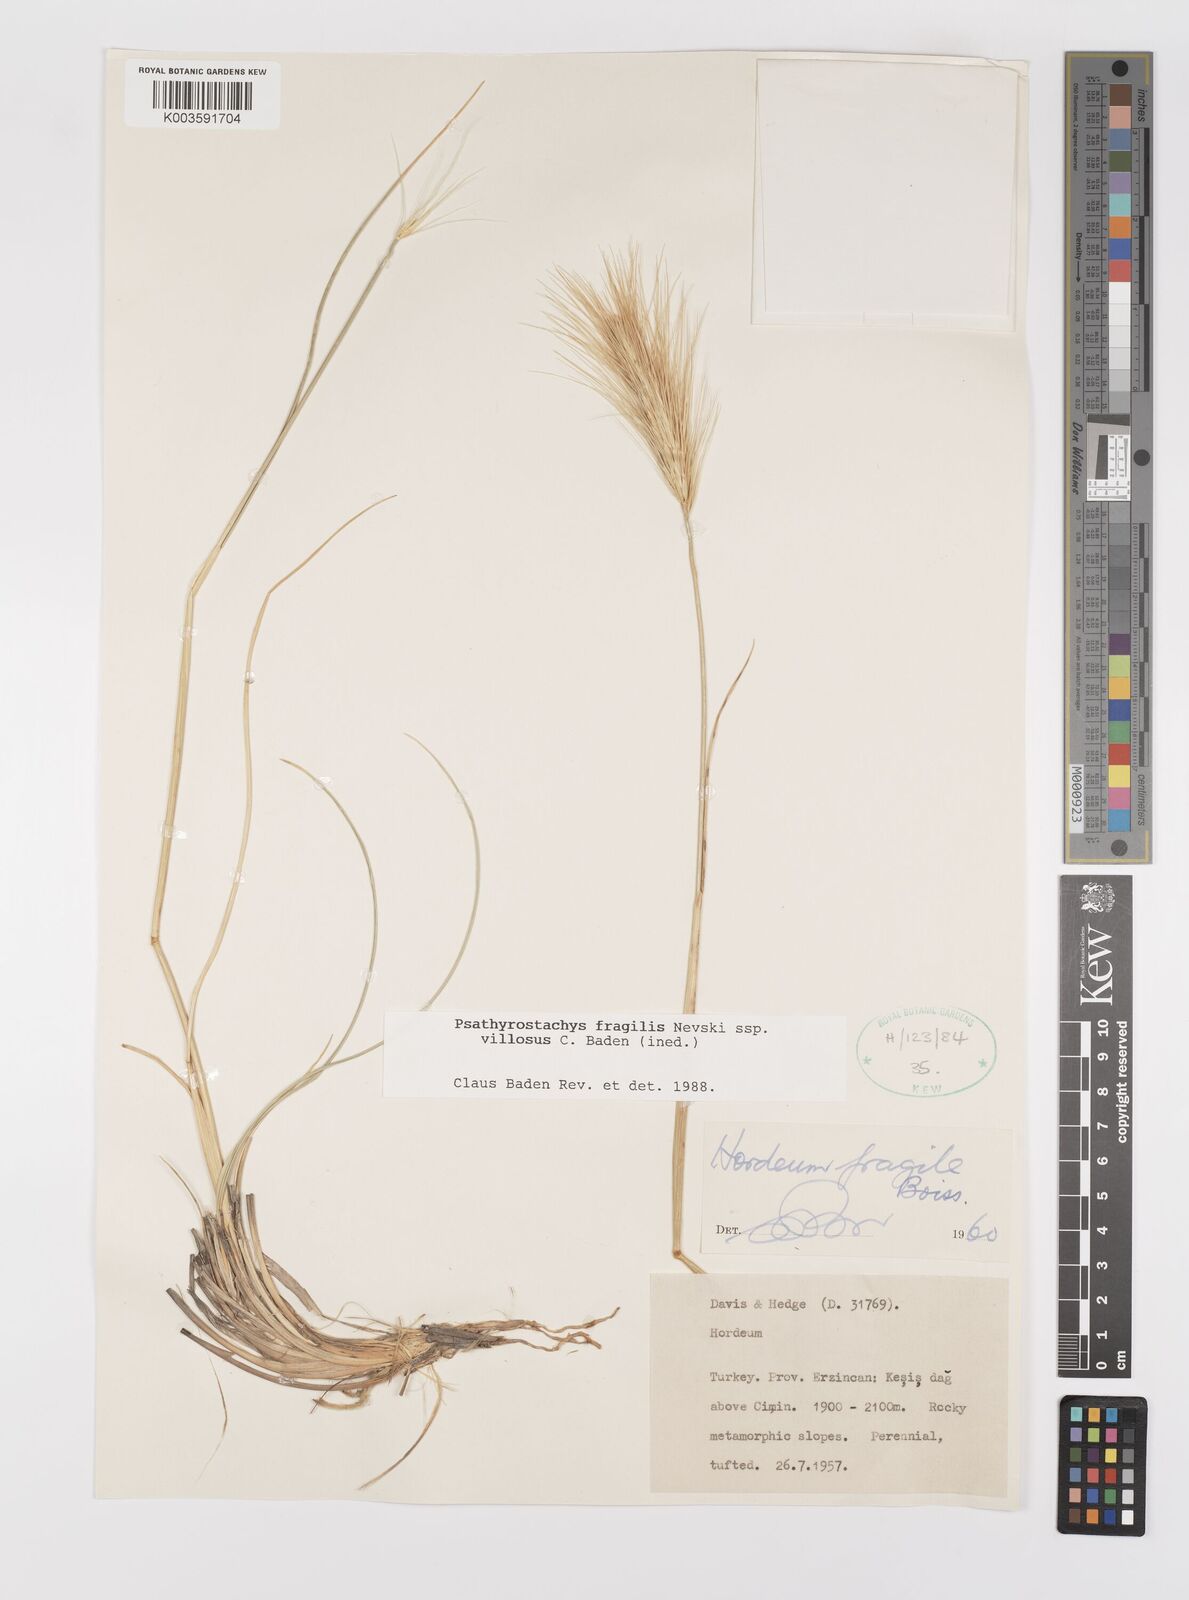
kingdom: Plantae
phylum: Tracheophyta
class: Liliopsida
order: Poales
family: Poaceae
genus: Psathyrostachys
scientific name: Psathyrostachys fragilis
